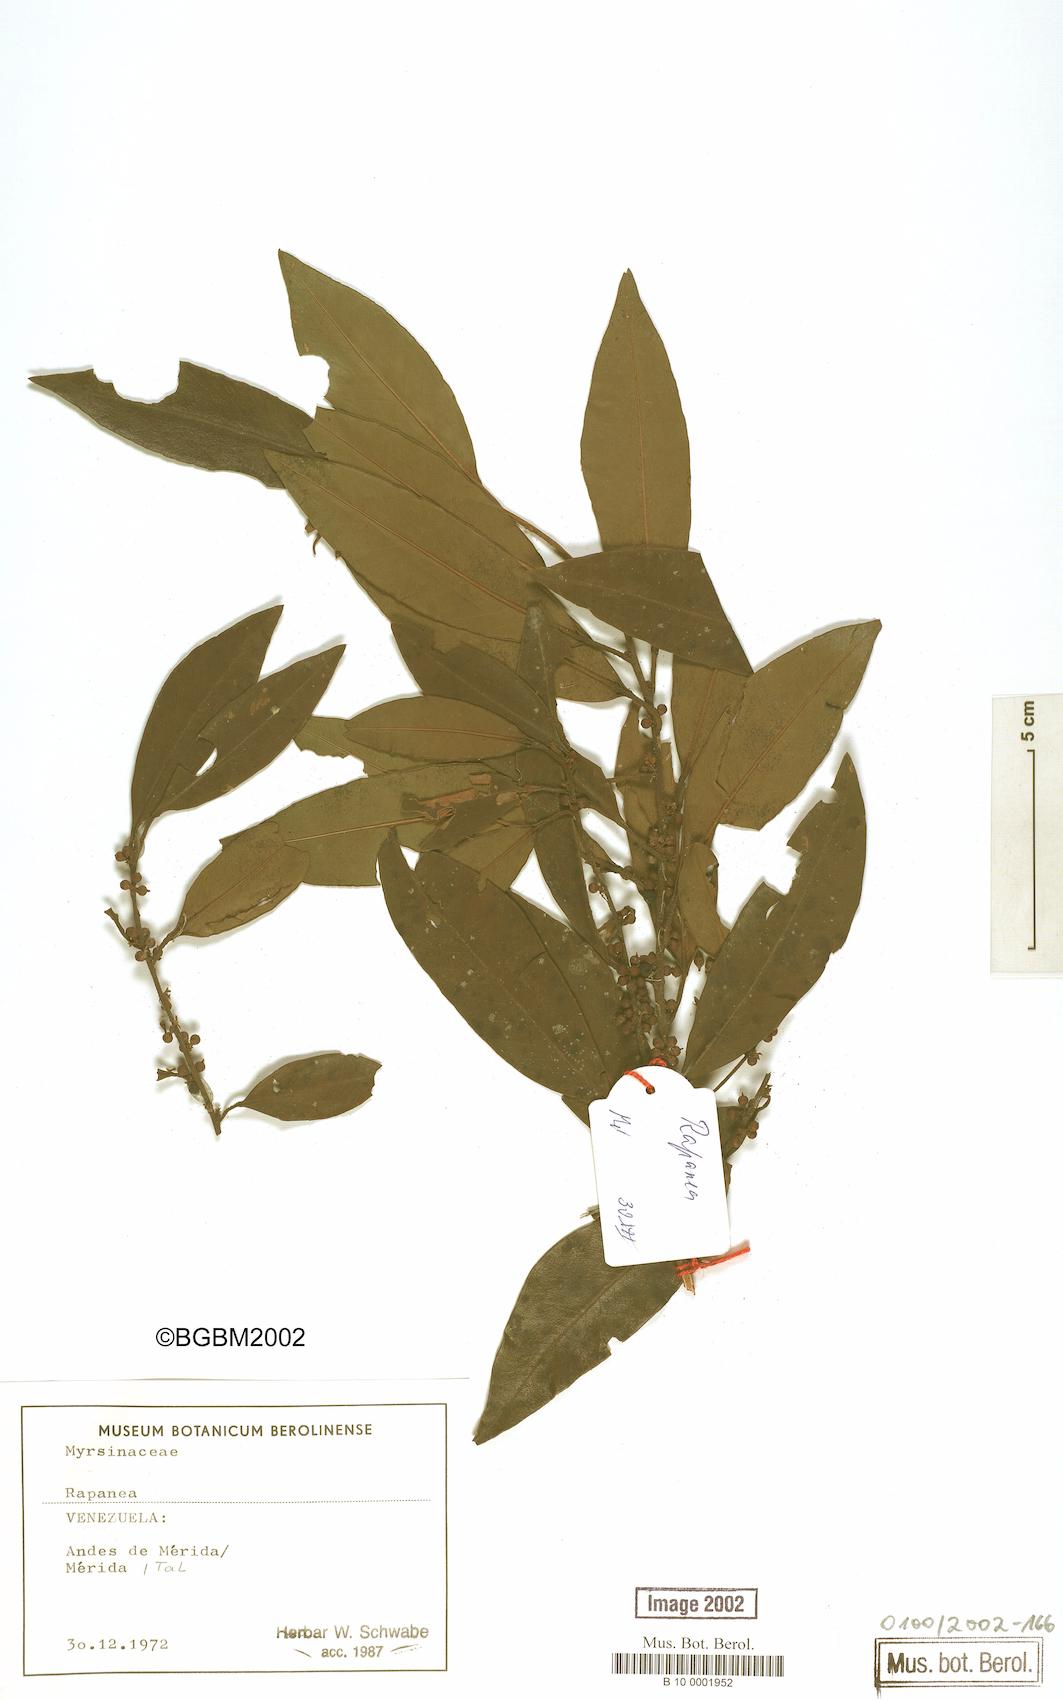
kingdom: Plantae
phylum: Tracheophyta
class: Magnoliopsida
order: Ericales
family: Primulaceae
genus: Myrsine
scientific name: Myrsine
